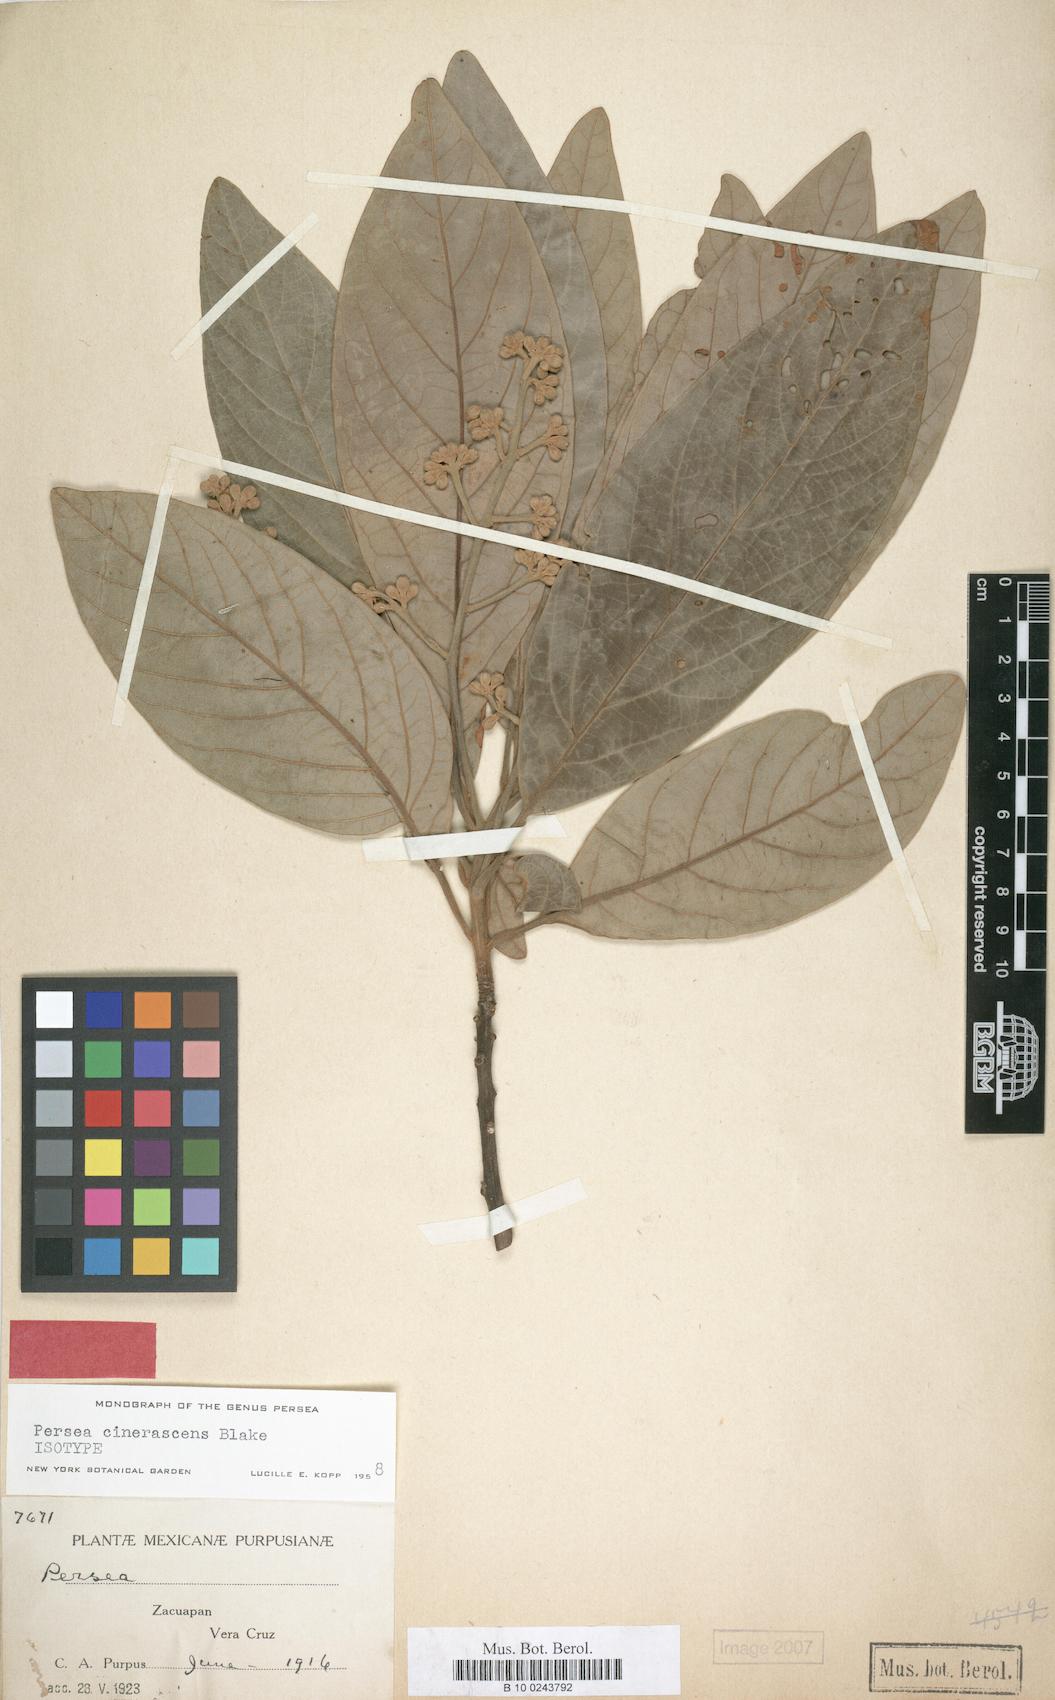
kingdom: Plantae
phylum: Tracheophyta
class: Magnoliopsida
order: Laurales
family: Lauraceae
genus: Persea
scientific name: Persea cinerascens
